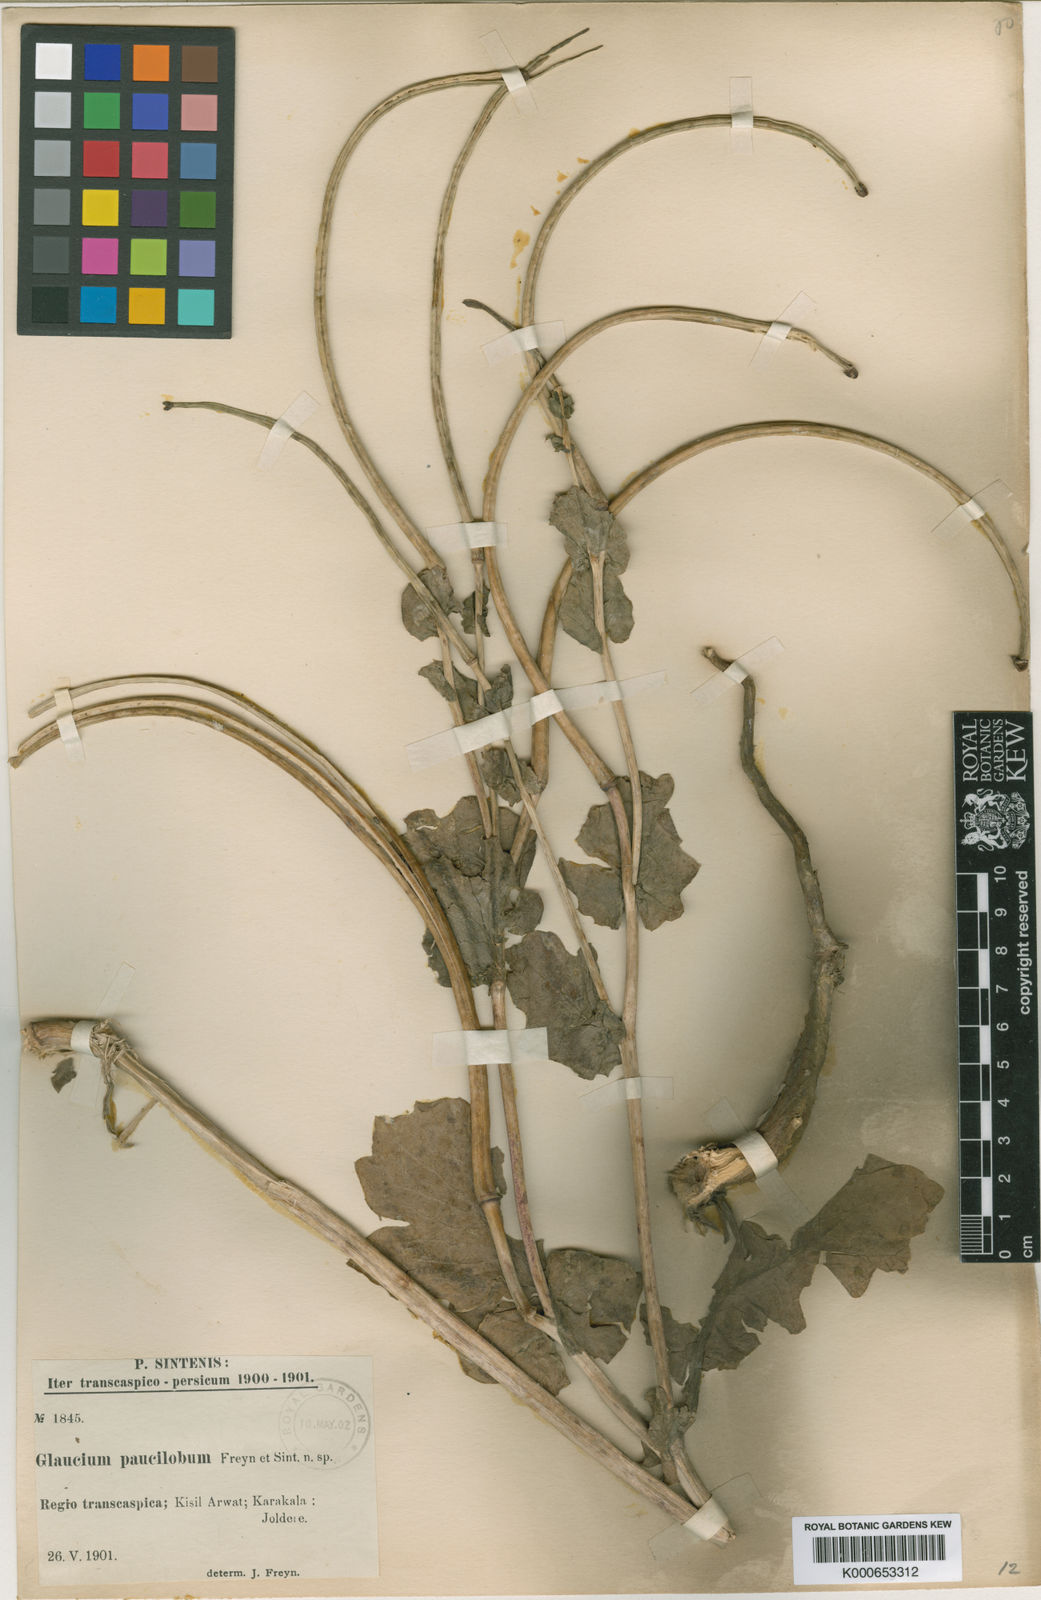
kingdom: Plantae
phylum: Tracheophyta
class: Magnoliopsida
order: Ranunculales
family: Papaveraceae
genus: Glaucium
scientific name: Glaucium
